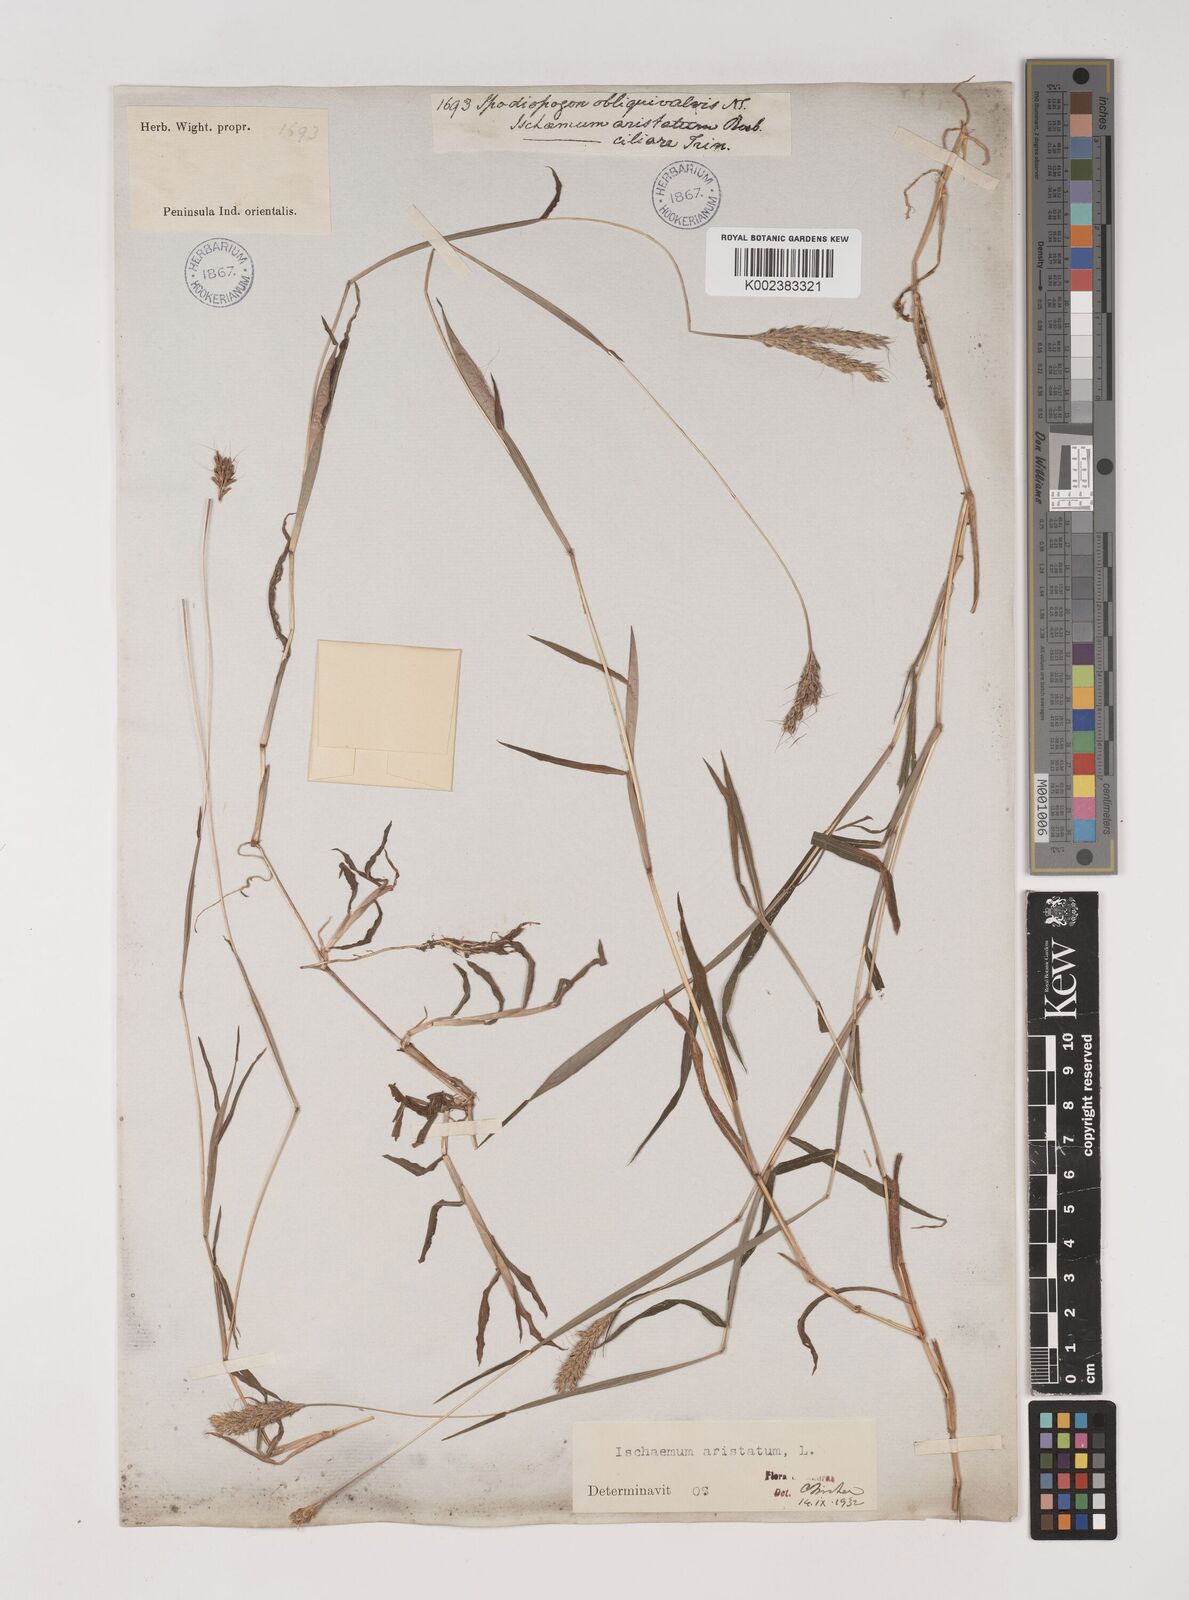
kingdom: Plantae
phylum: Tracheophyta
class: Liliopsida
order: Poales
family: Poaceae
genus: Polytrias
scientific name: Polytrias indica
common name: Indian murainagrass
